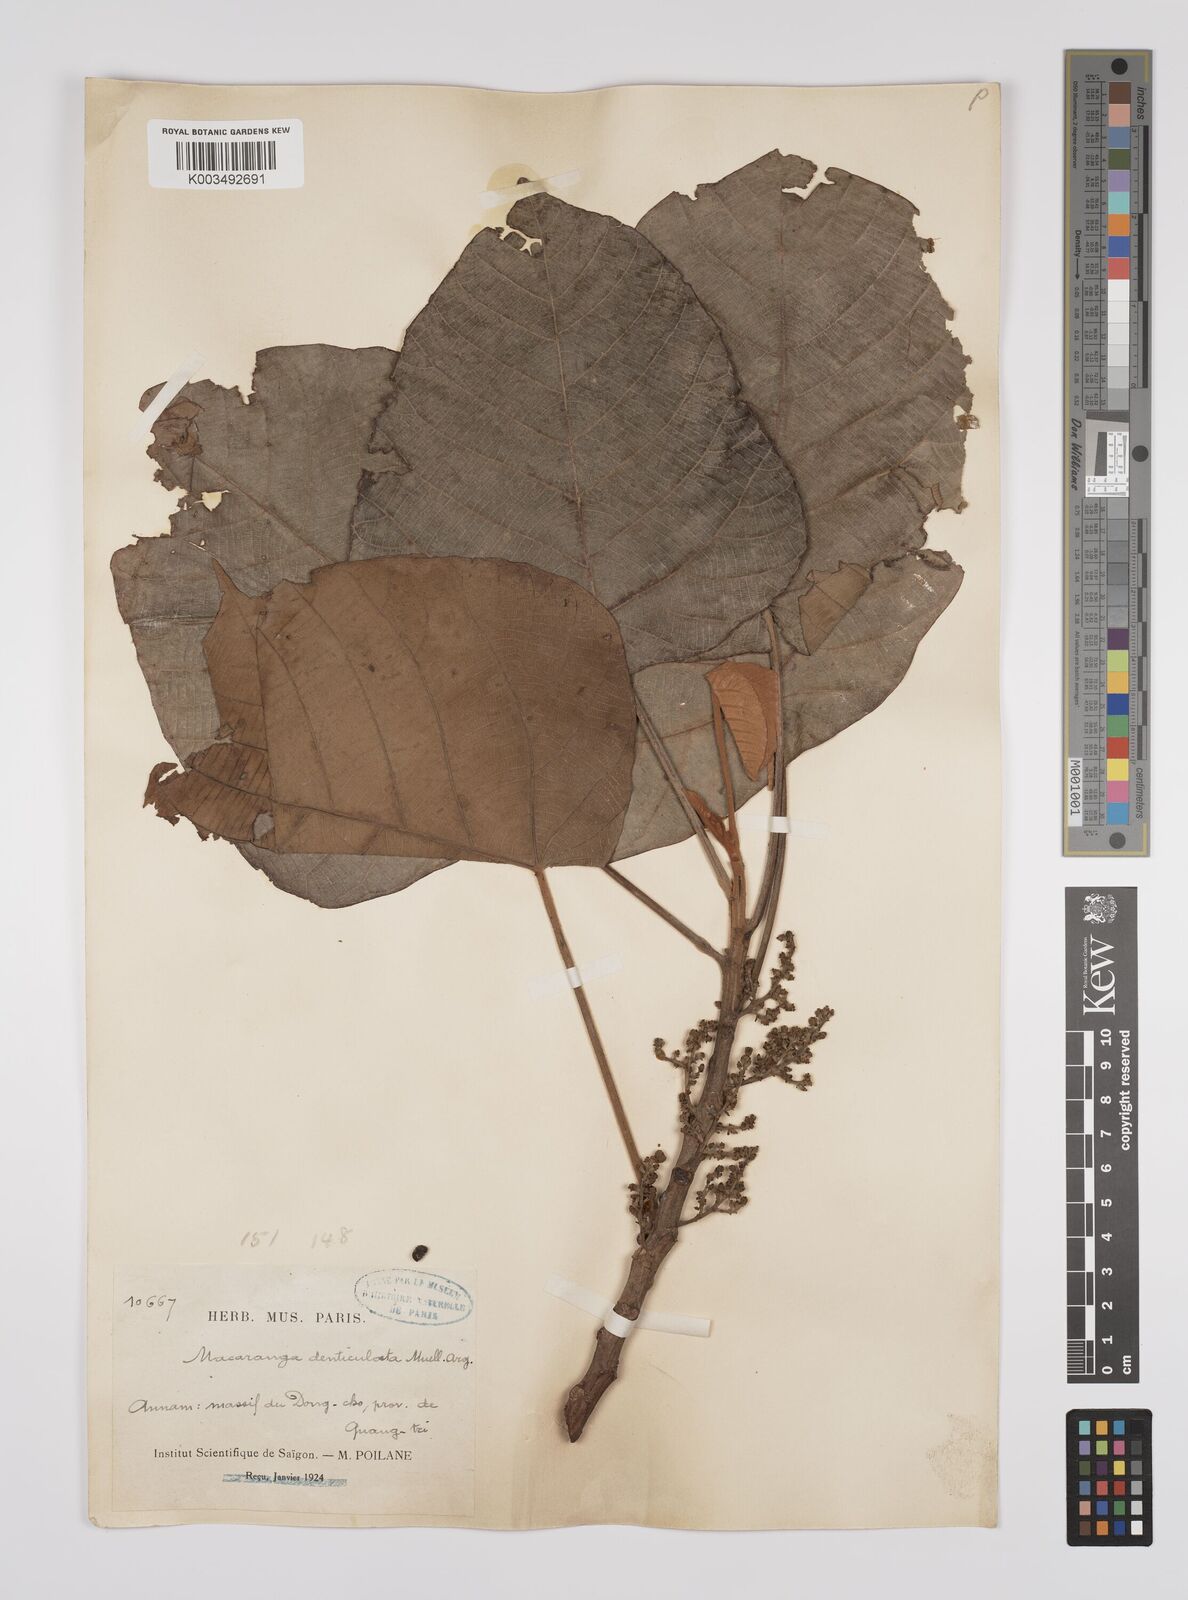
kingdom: Plantae
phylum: Tracheophyta
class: Magnoliopsida
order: Malpighiales
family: Euphorbiaceae
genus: Macaranga
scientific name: Macaranga denticulata
